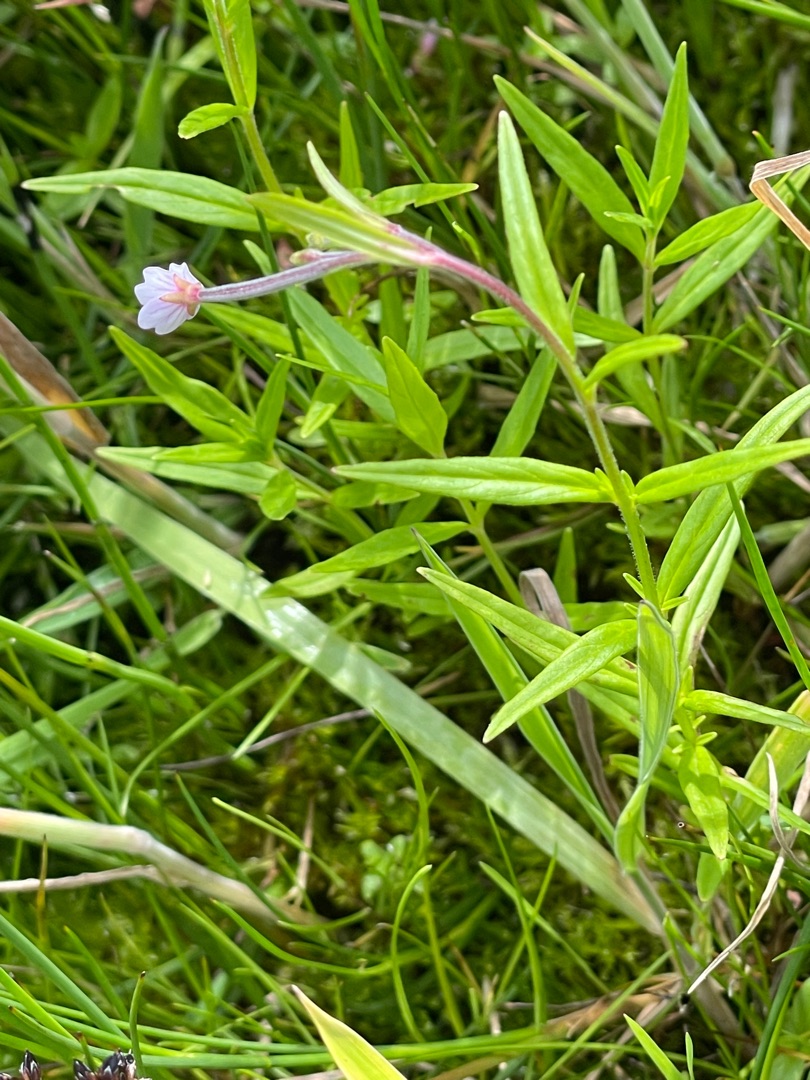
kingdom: Plantae
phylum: Tracheophyta
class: Magnoliopsida
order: Myrtales
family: Onagraceae
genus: Epilobium
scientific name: Epilobium palustre
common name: Kær-dueurt
